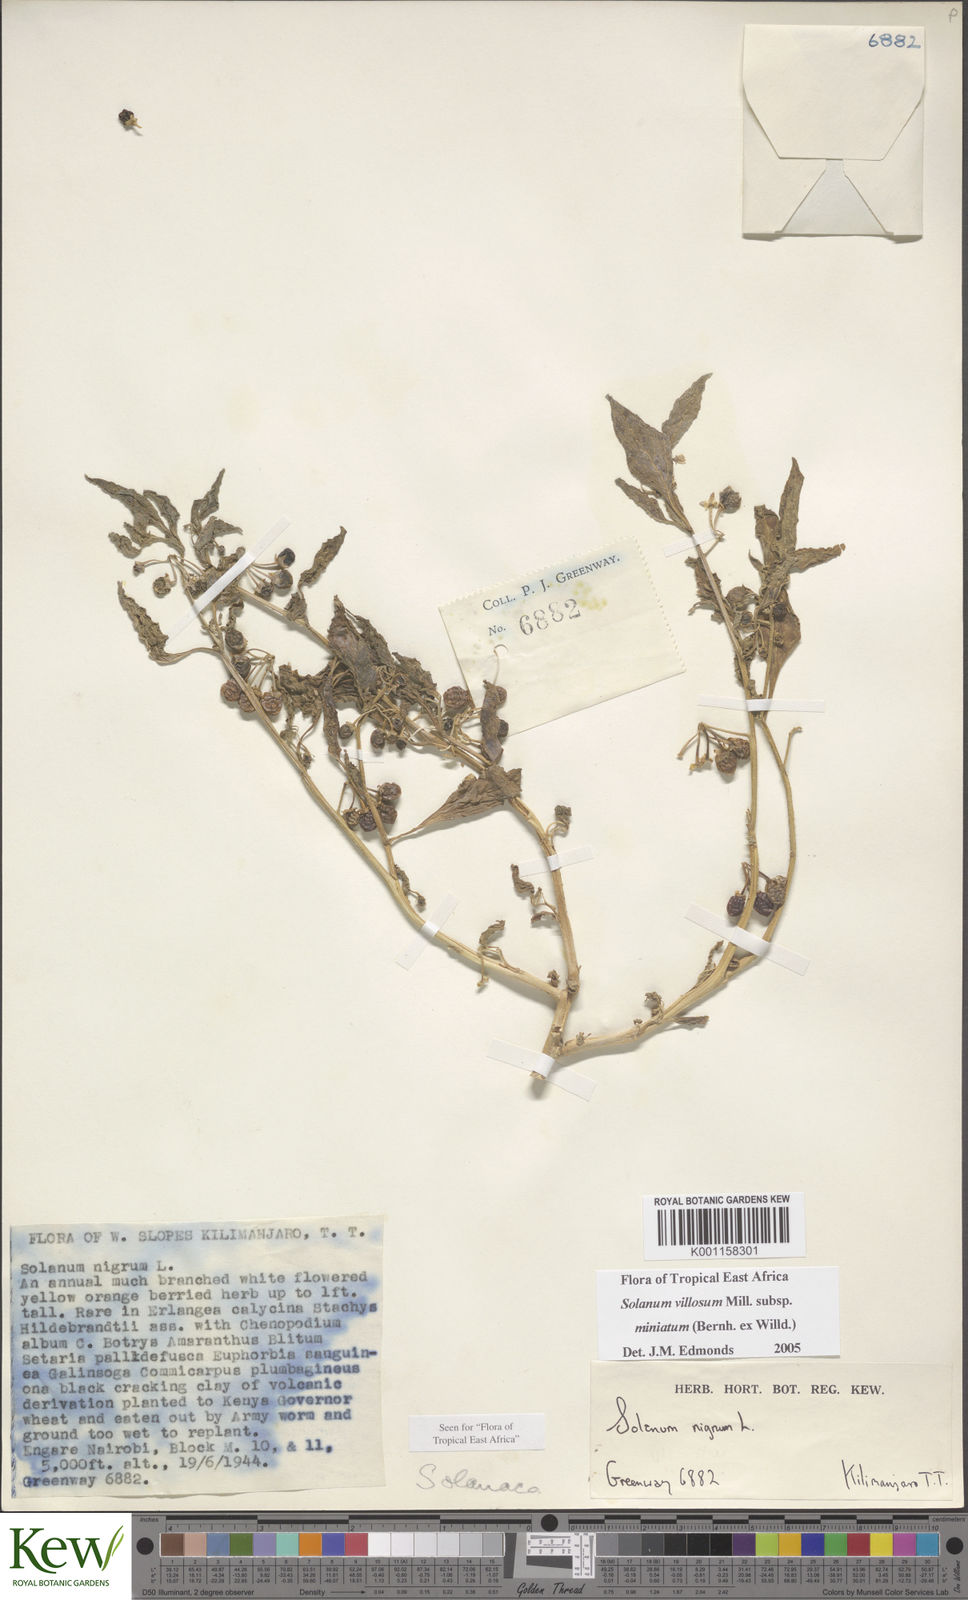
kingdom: Plantae
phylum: Tracheophyta
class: Magnoliopsida
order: Solanales
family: Solanaceae
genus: Solanum
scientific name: Solanum villosum
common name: Red nightshade
